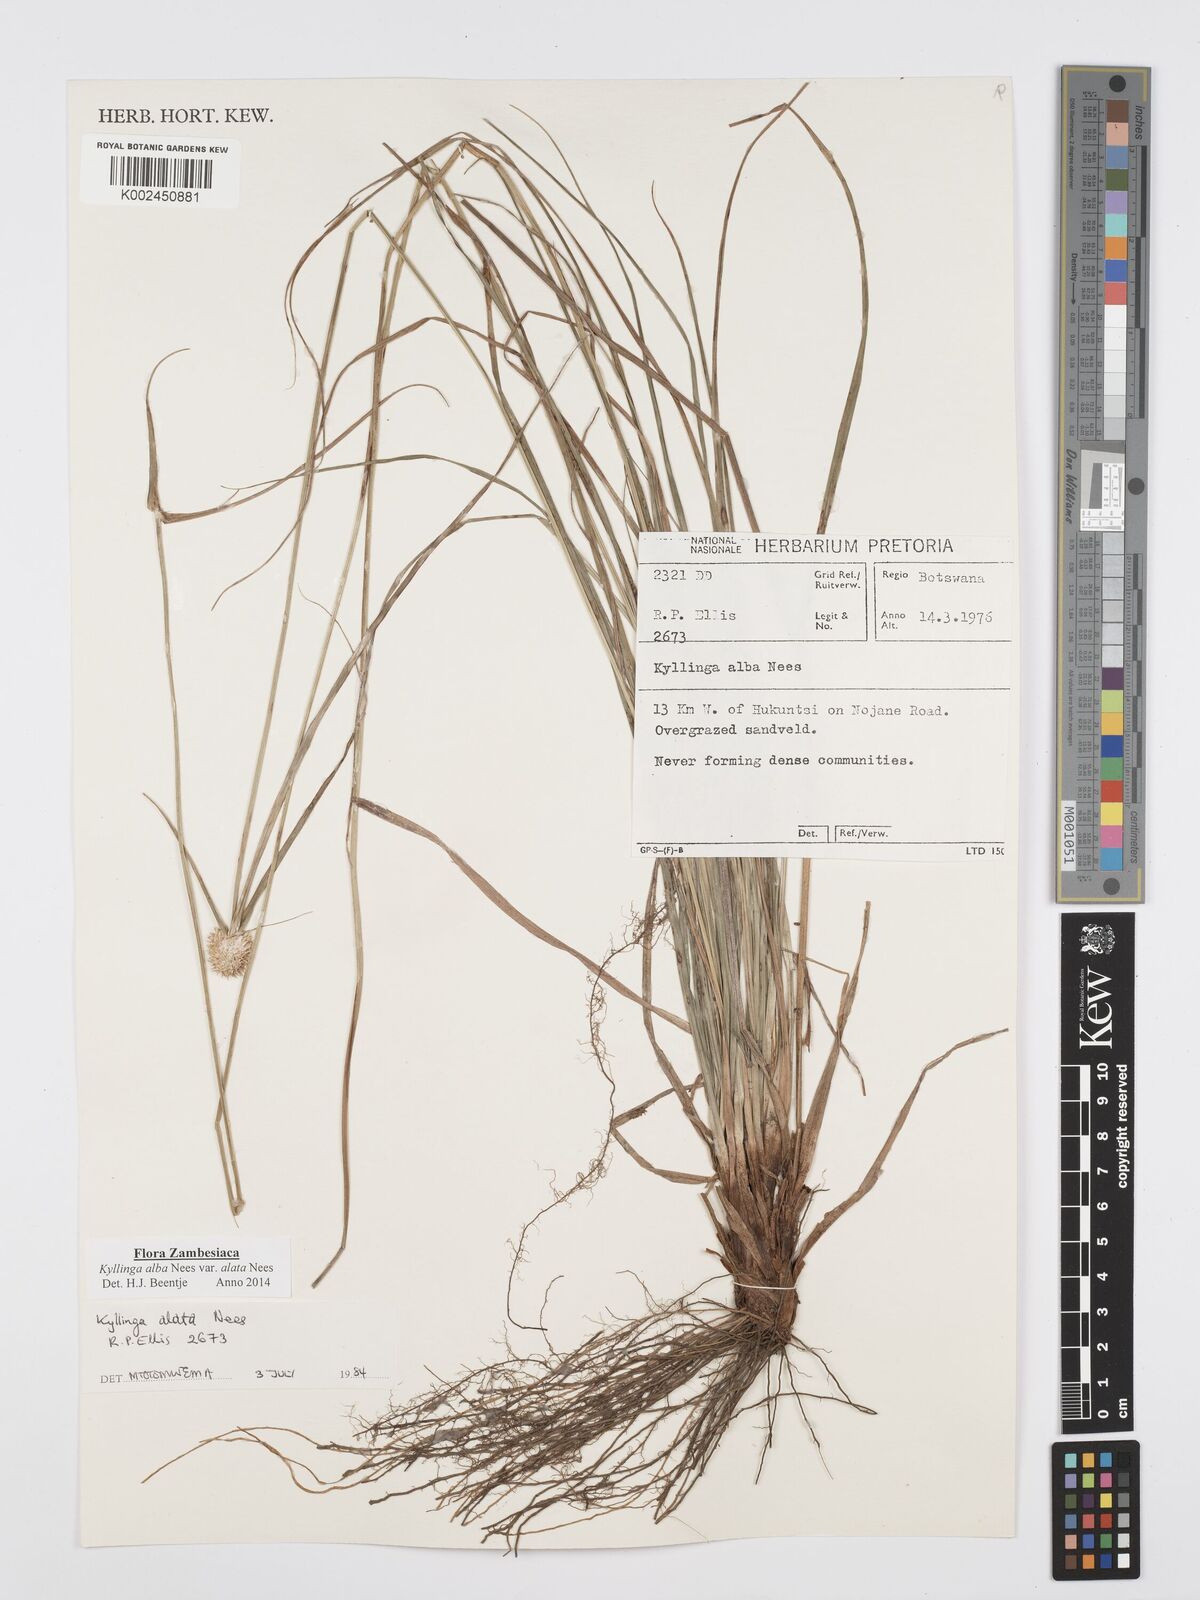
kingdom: Plantae
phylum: Tracheophyta
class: Liliopsida
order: Poales
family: Cyperaceae
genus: Cyperus
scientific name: Cyperus alatus
